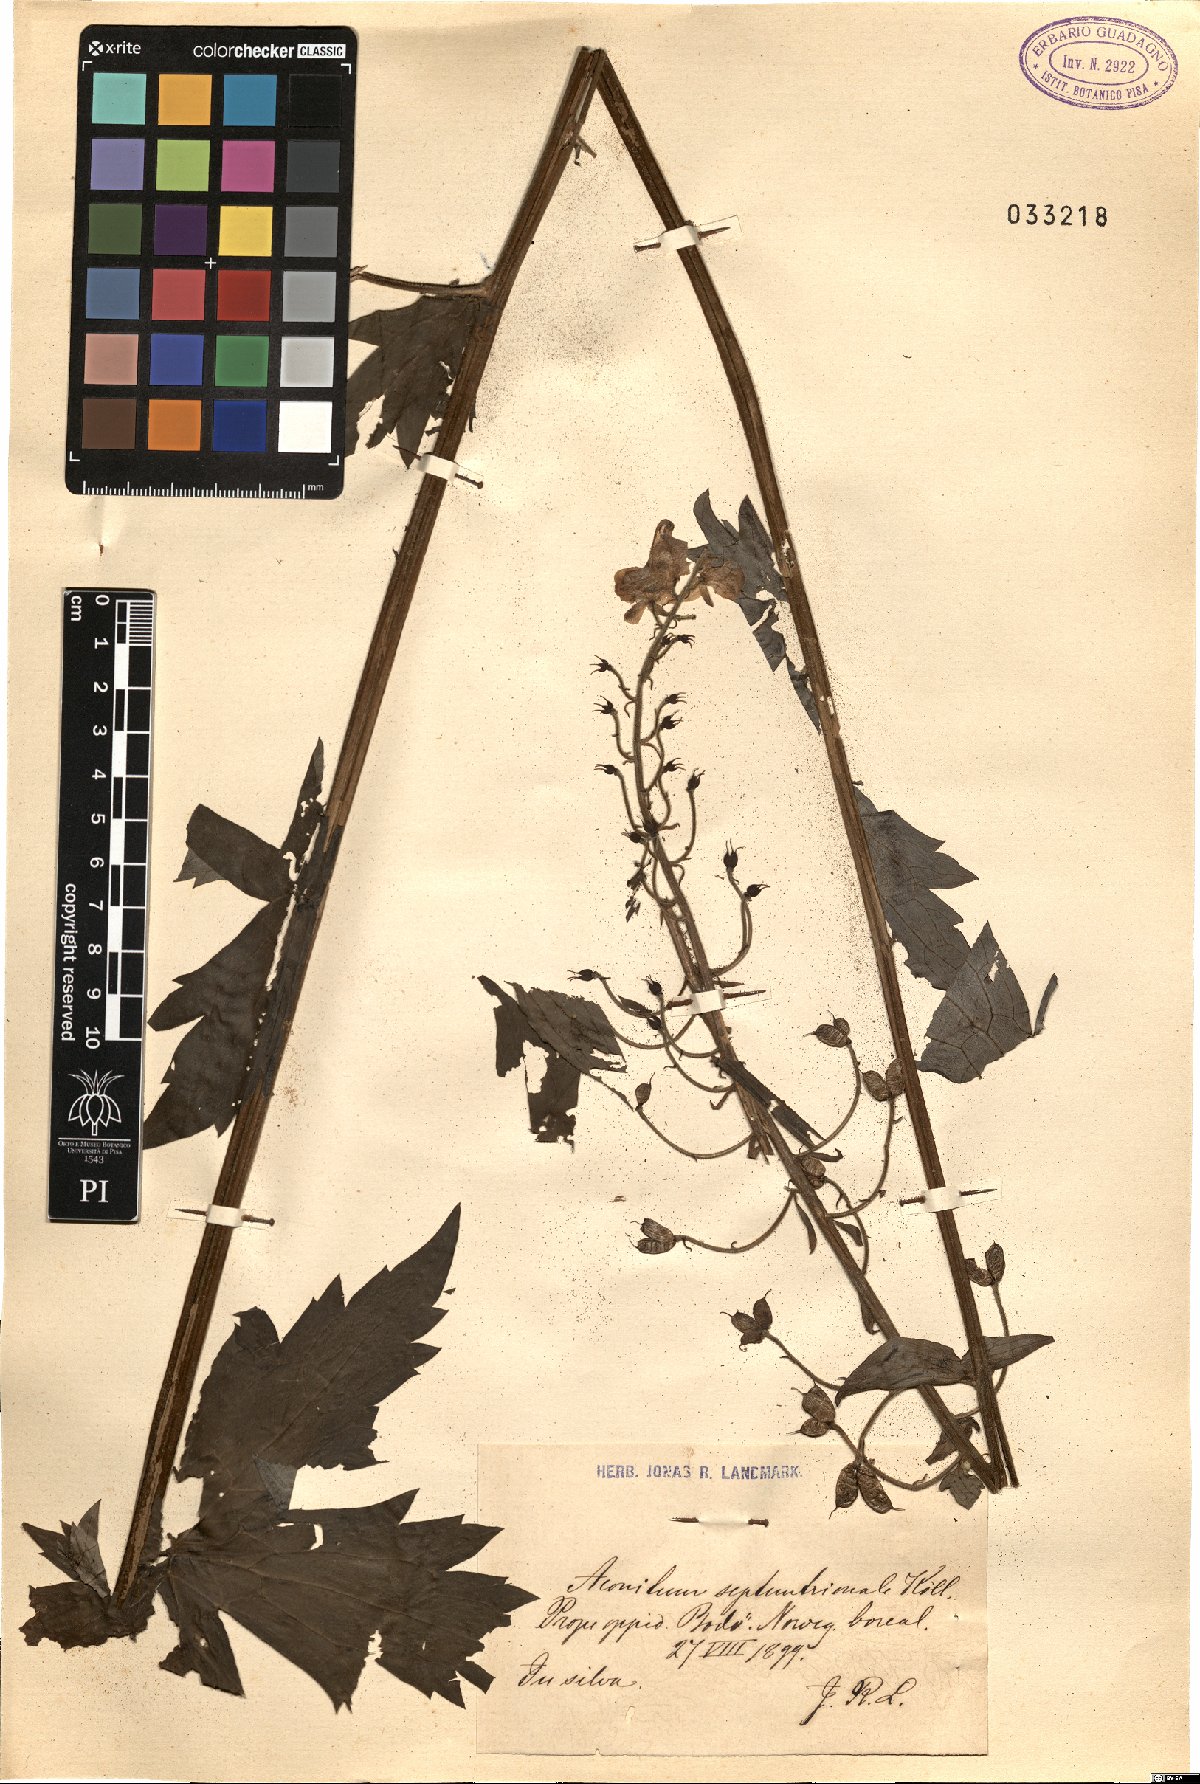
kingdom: Plantae
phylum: Tracheophyta
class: Magnoliopsida
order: Ranunculales
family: Ranunculaceae
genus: Aconitum
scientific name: Aconitum septentrionale
